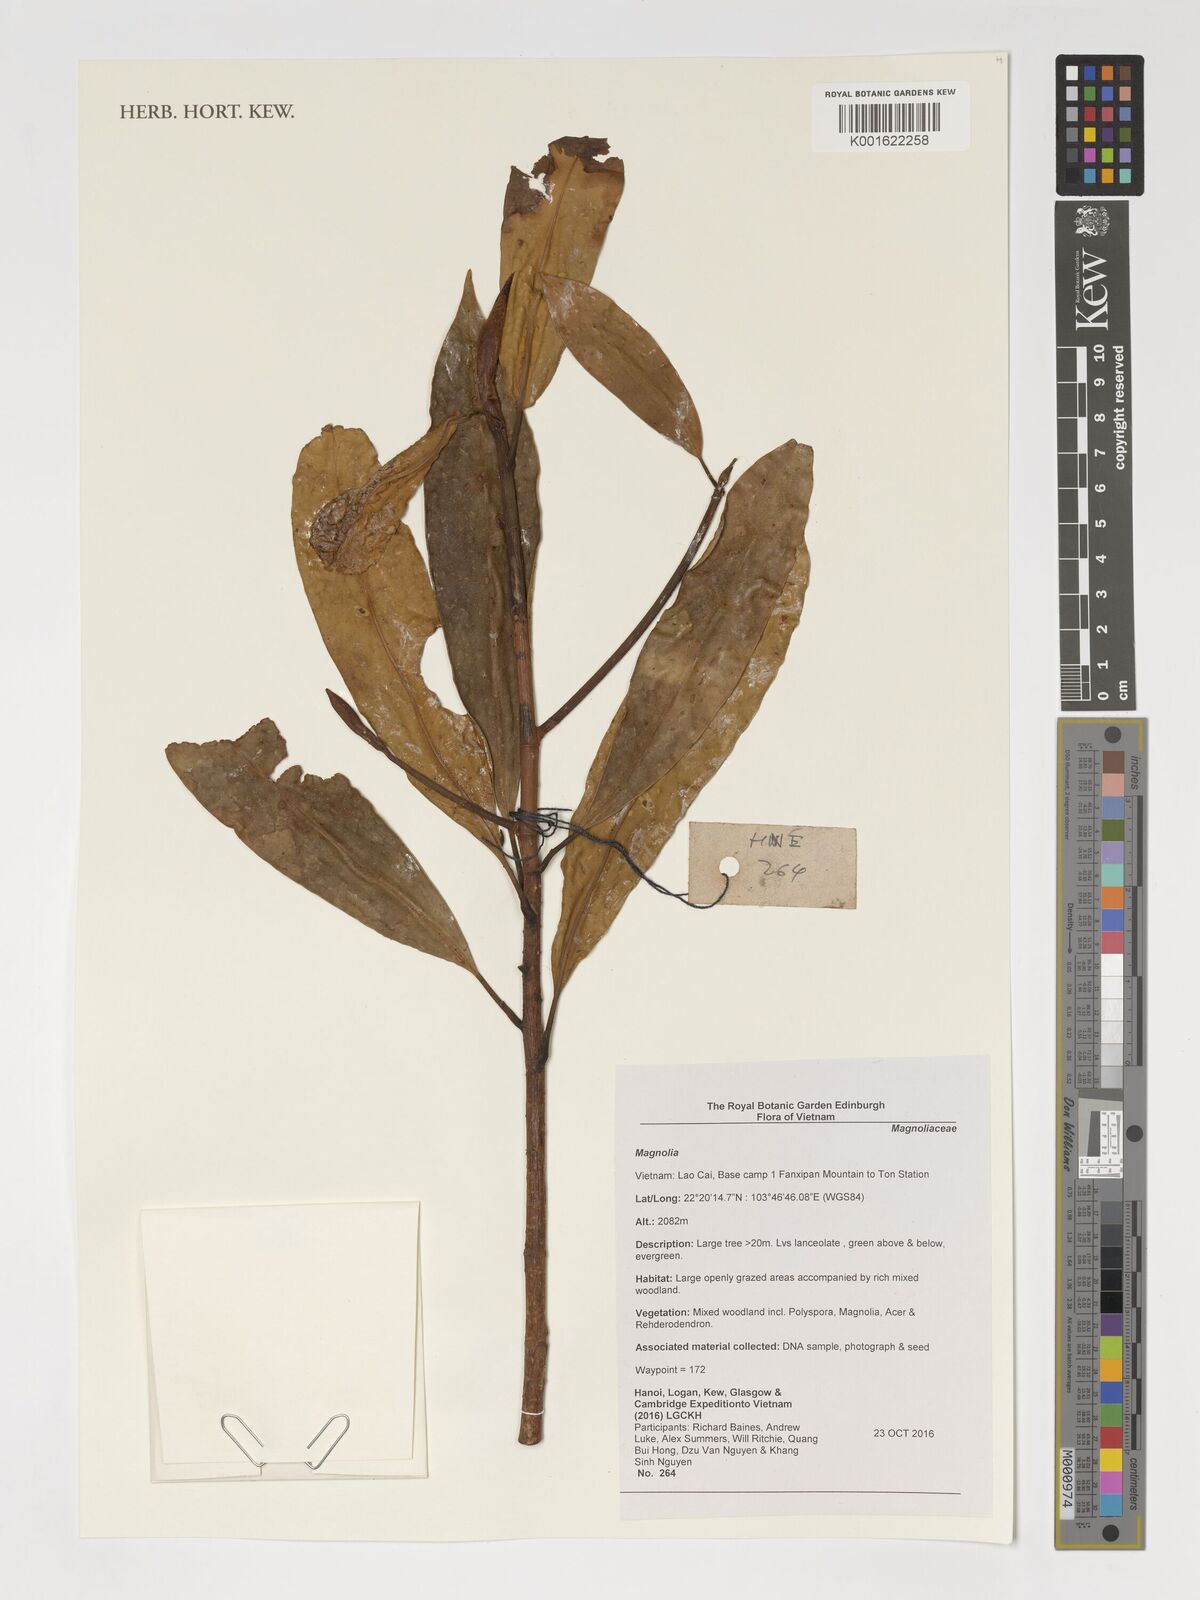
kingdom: Plantae
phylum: Tracheophyta
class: Magnoliopsida
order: Magnoliales
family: Magnoliaceae
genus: Magnolia
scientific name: Magnolia
